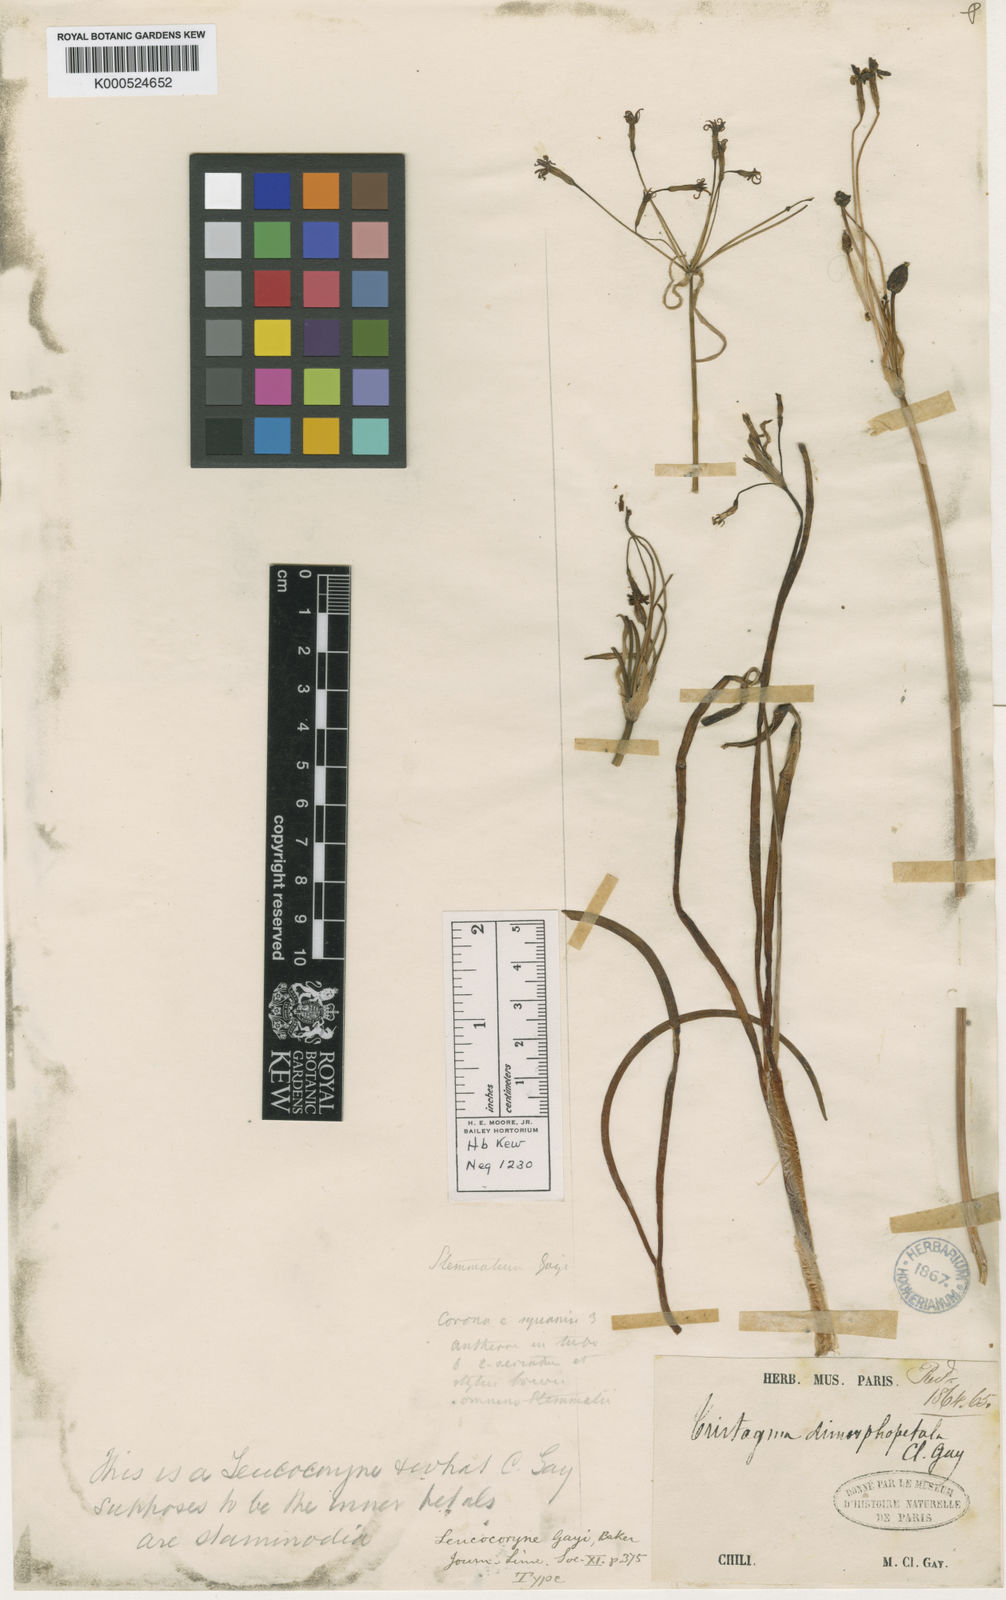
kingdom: Plantae
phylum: Tracheophyta
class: Liliopsida
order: Asparagales
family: Amaryllidaceae
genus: Leucocoryne
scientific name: Leucocoryne dimorphopetala
